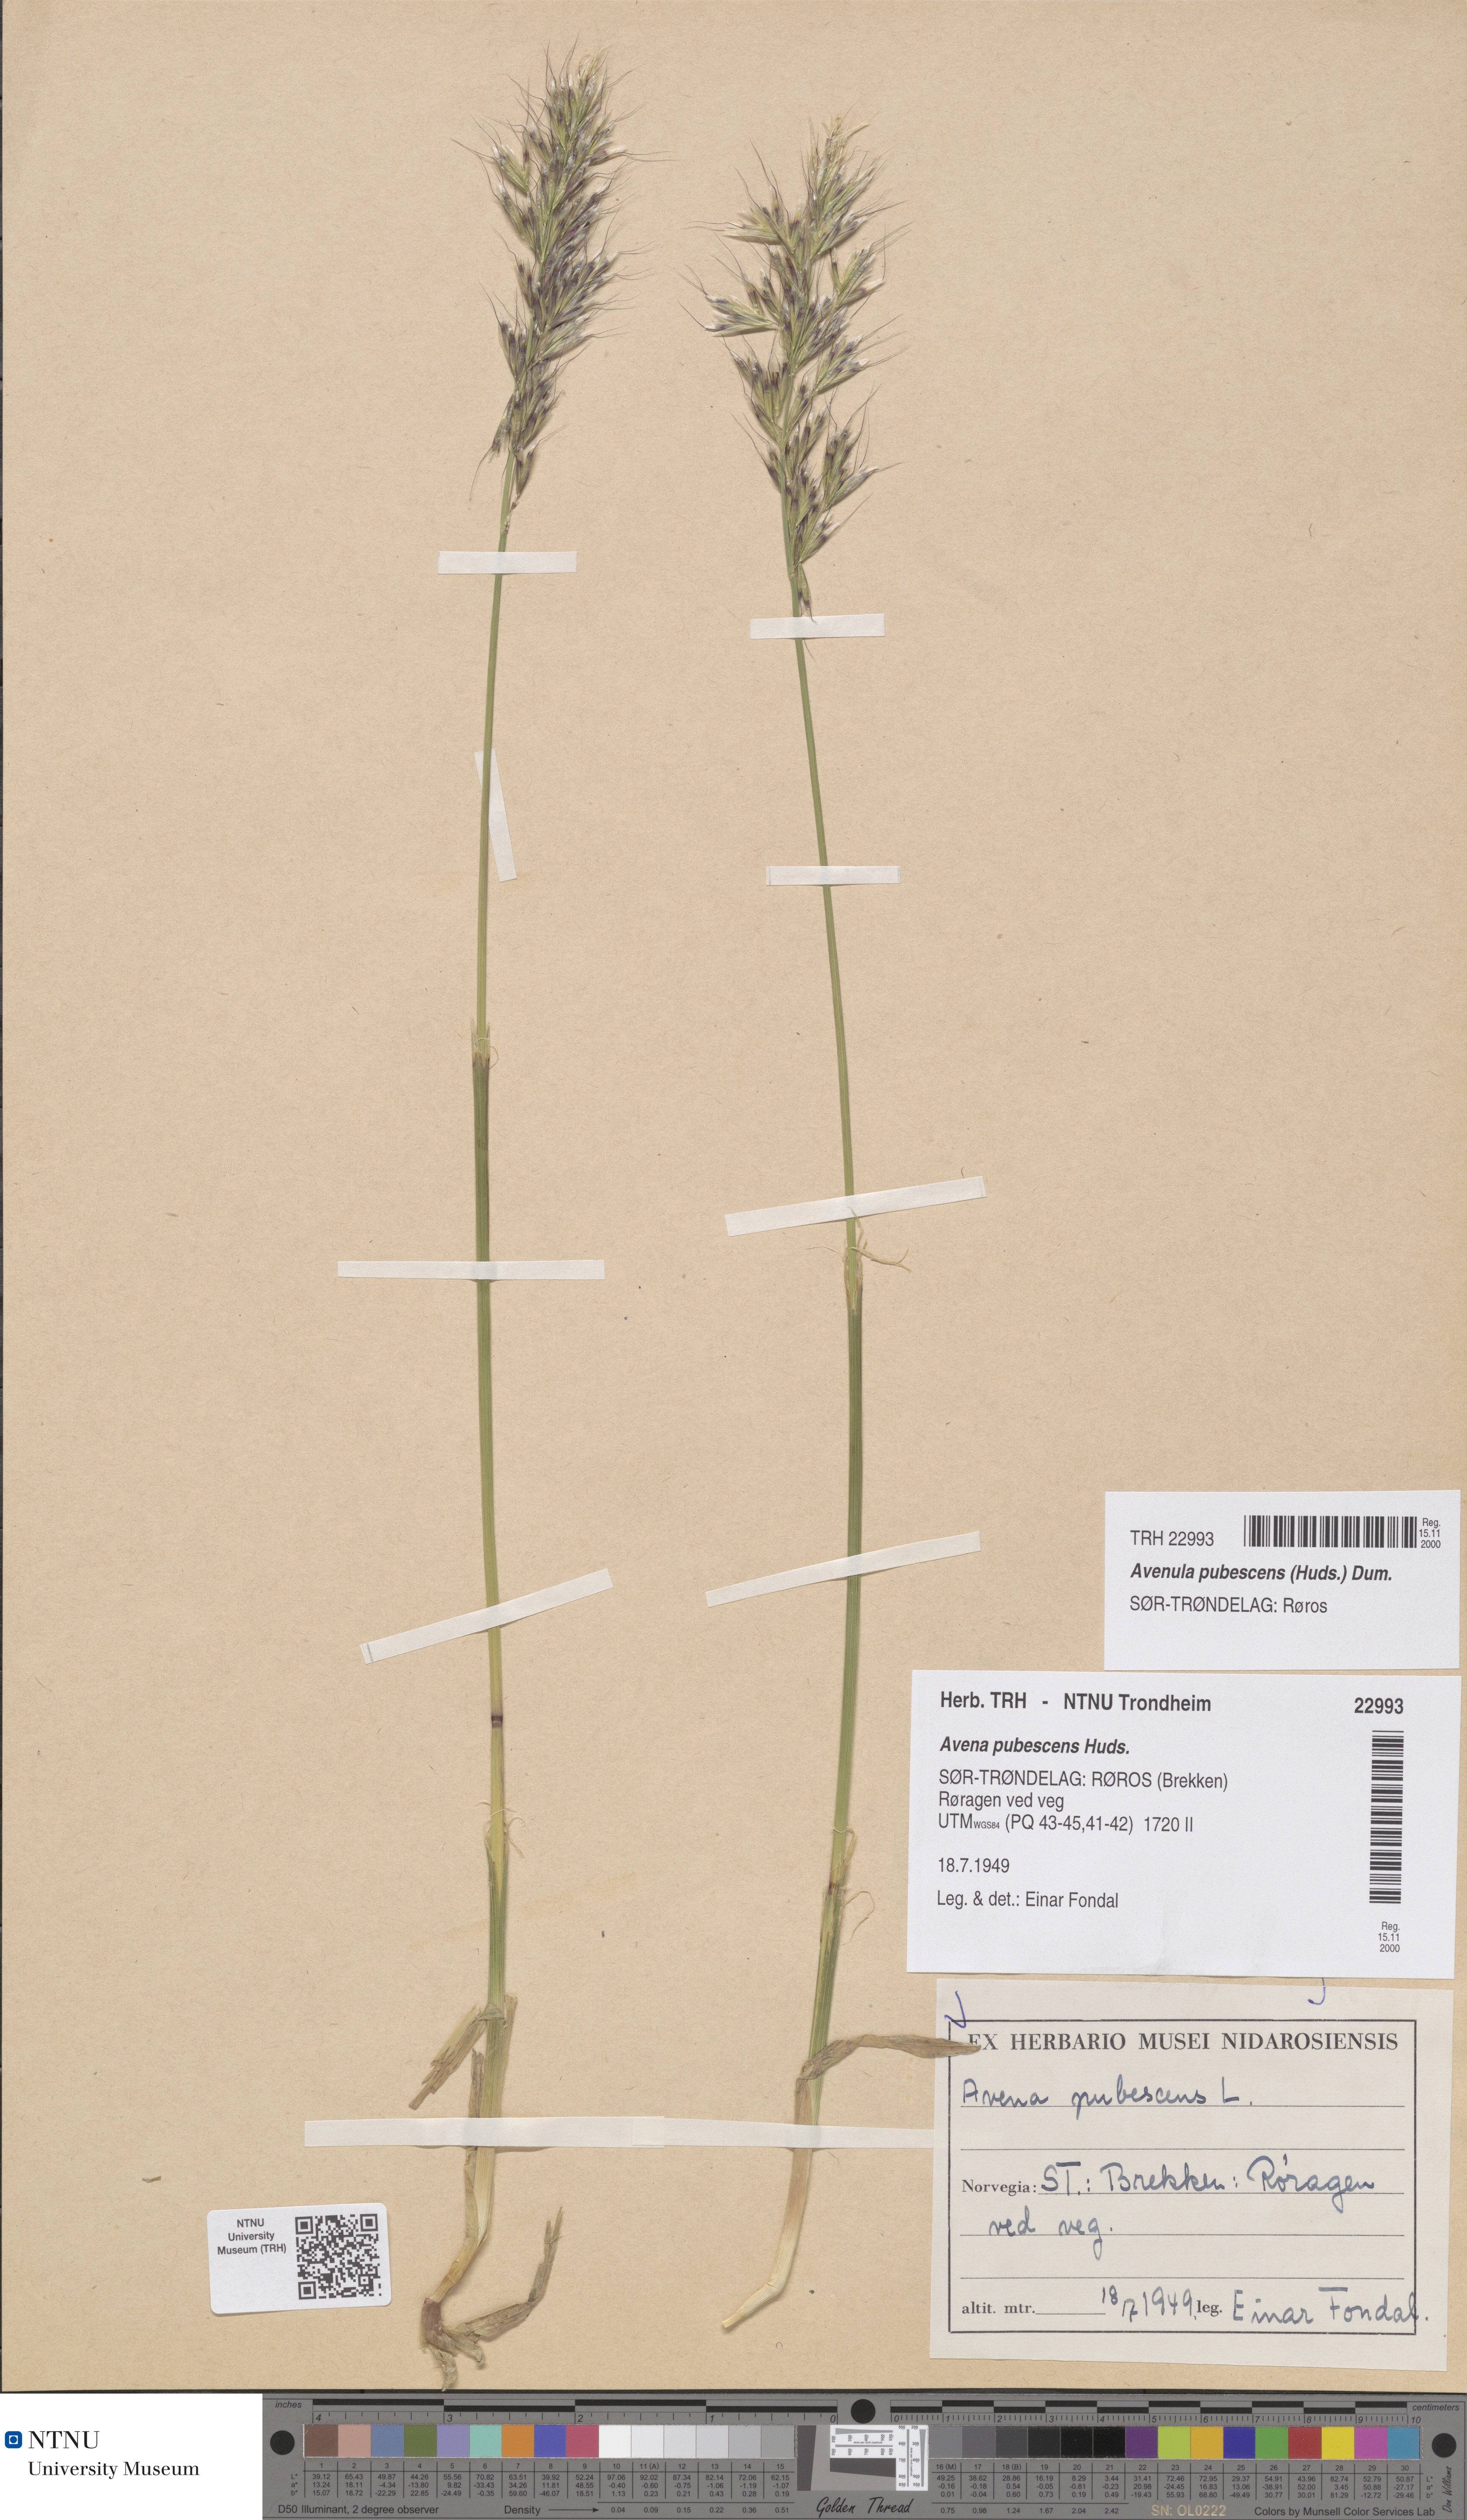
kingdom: Plantae
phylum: Tracheophyta
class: Liliopsida
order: Poales
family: Poaceae
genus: Avenula
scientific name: Avenula pubescens
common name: Downy alpine oatgrass
